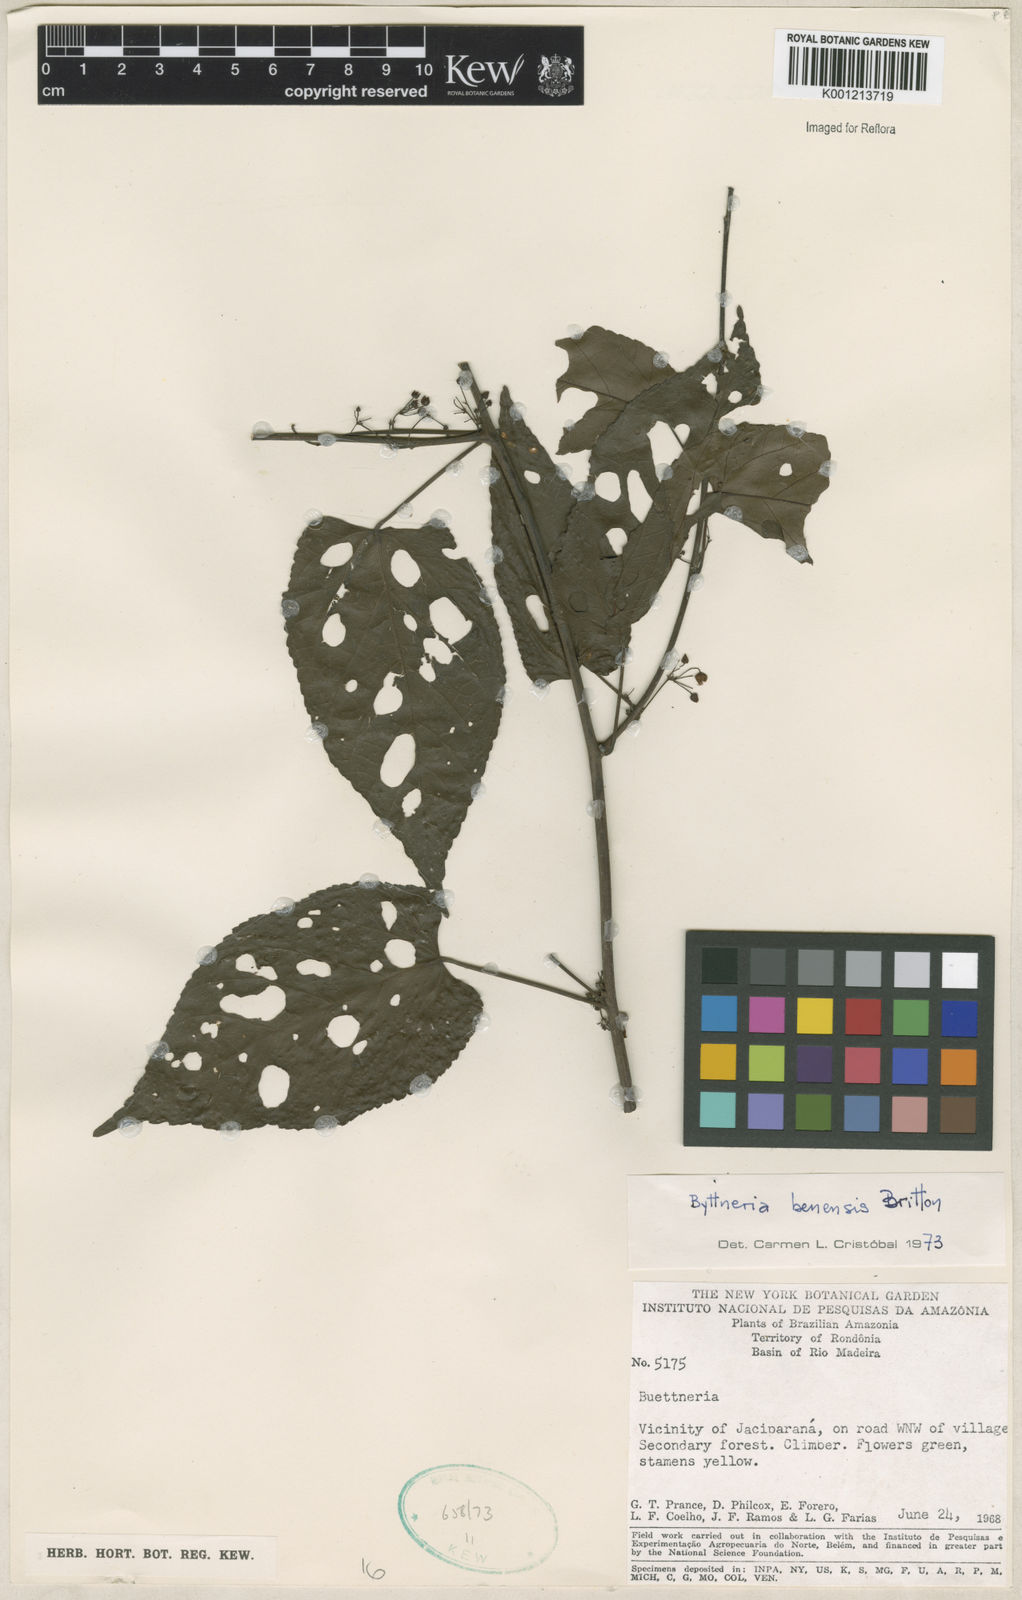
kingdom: Plantae
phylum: Tracheophyta
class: Magnoliopsida
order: Malvales
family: Malvaceae
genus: Byttneria
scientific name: Byttneria benensis
